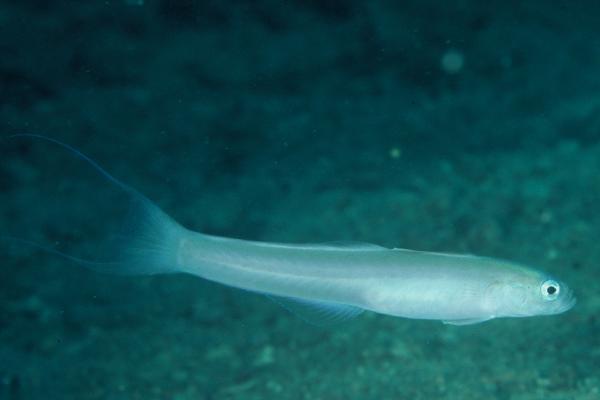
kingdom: Animalia
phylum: Chordata
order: Perciformes
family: Microdesmidae
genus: Ptereleotris
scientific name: Ptereleotris arabica
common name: Arabian dartfish
